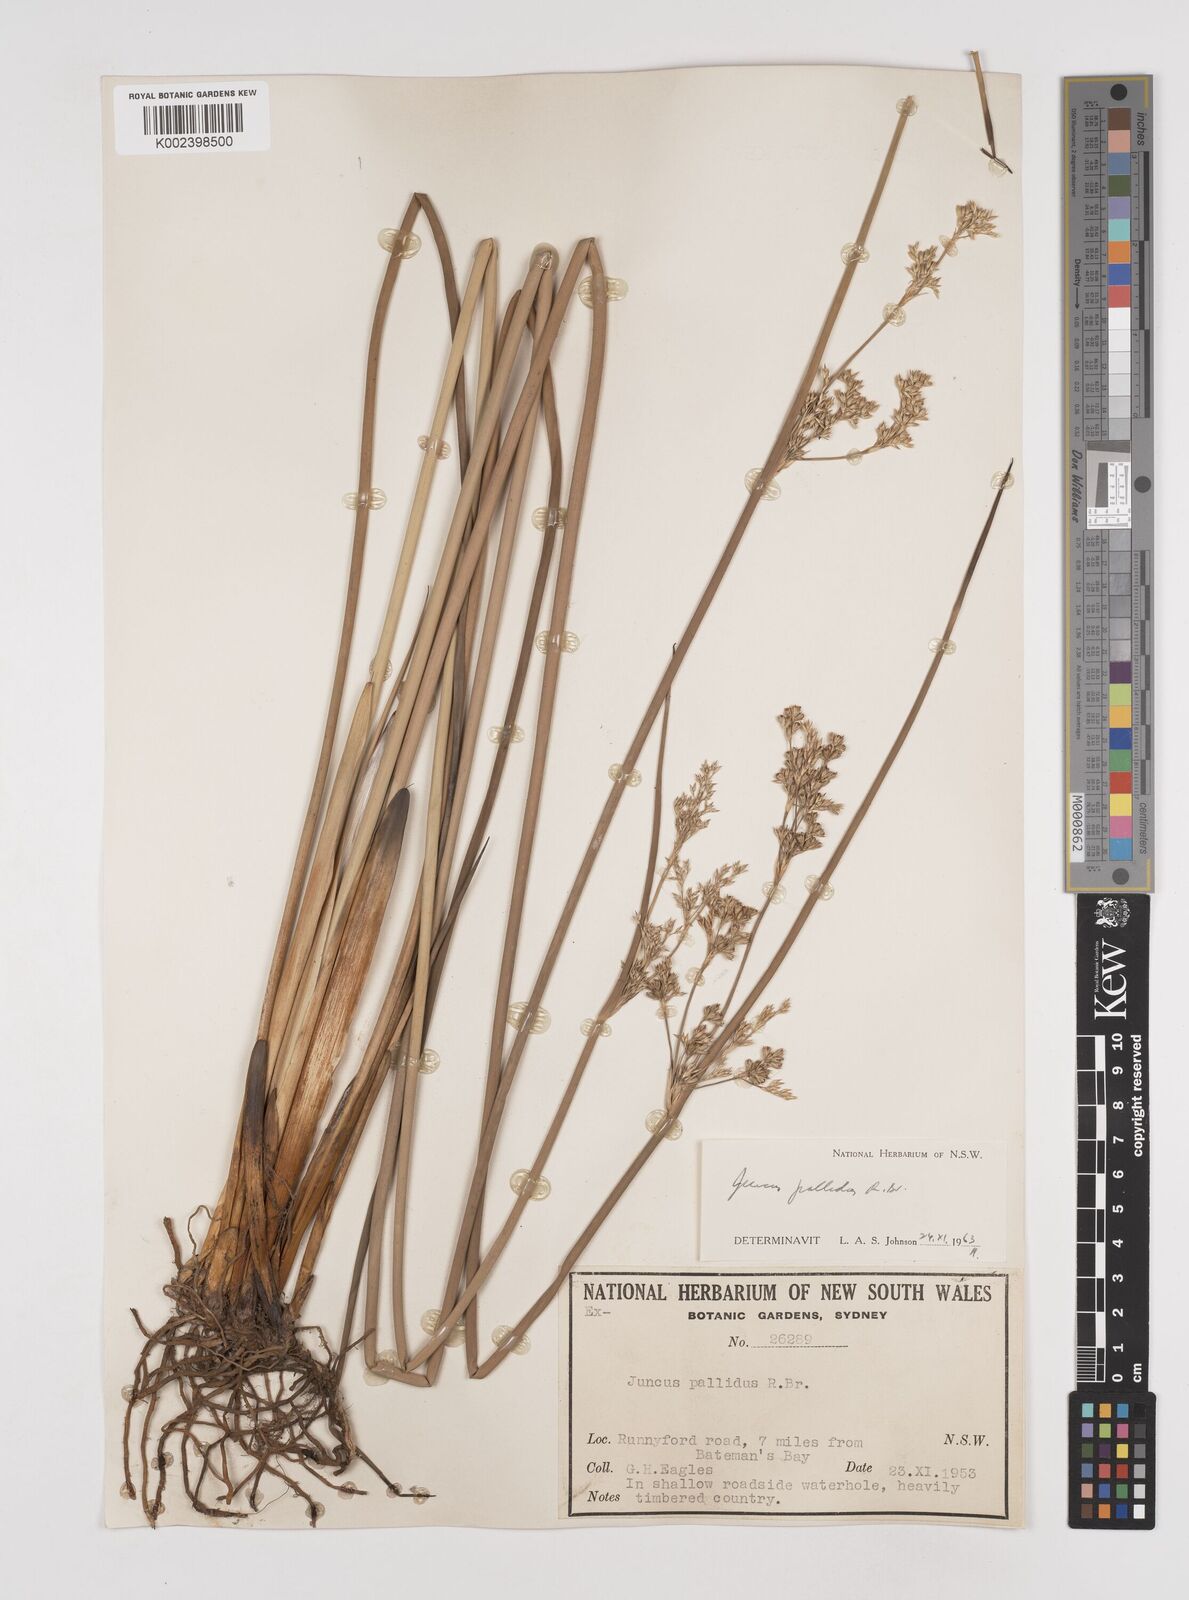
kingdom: Plantae
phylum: Tracheophyta
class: Liliopsida
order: Poales
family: Juncaceae
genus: Juncus
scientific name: Juncus pallidus
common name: Great soft-rush
